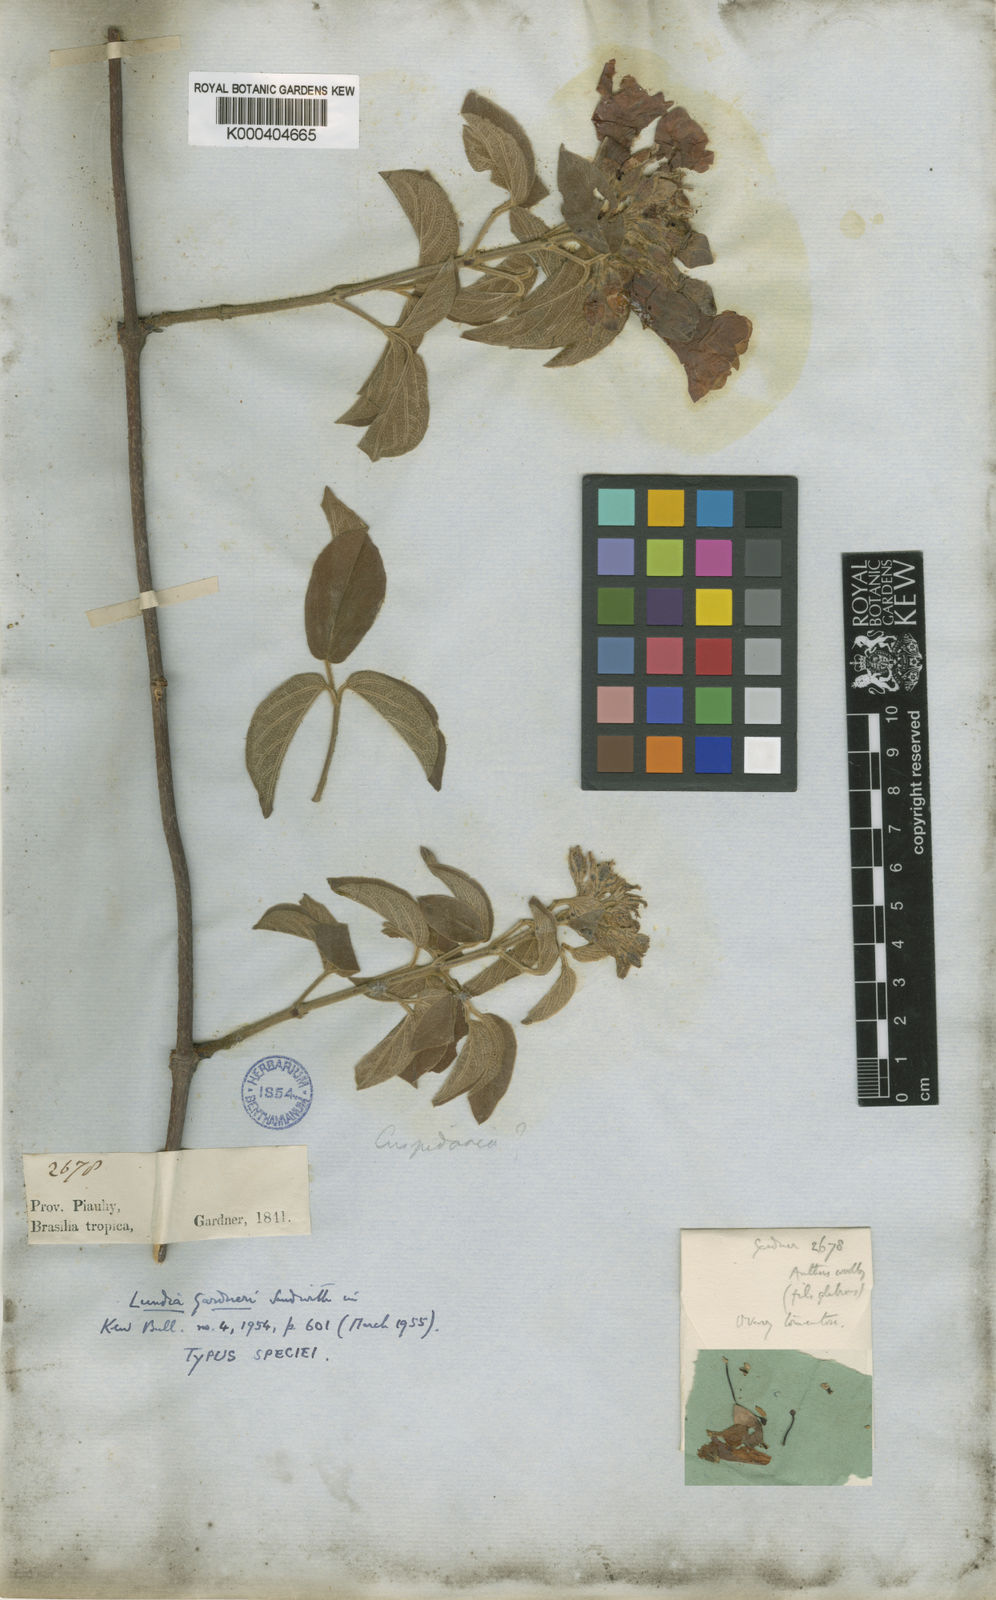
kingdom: Plantae
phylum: Tracheophyta
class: Magnoliopsida
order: Lamiales
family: Bignoniaceae
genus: Lundia
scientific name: Lundia gardneri
